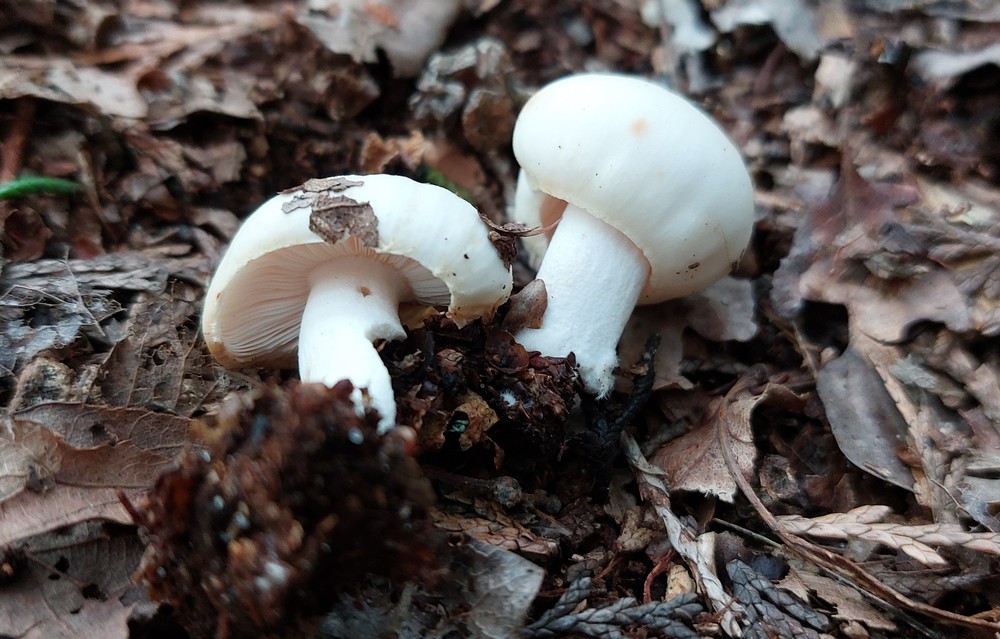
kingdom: Fungi
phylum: Basidiomycota
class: Agaricomycetes
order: Agaricales
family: Omphalotaceae
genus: Rhodocollybia
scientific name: Rhodocollybia maculata
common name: plettet fladhat
